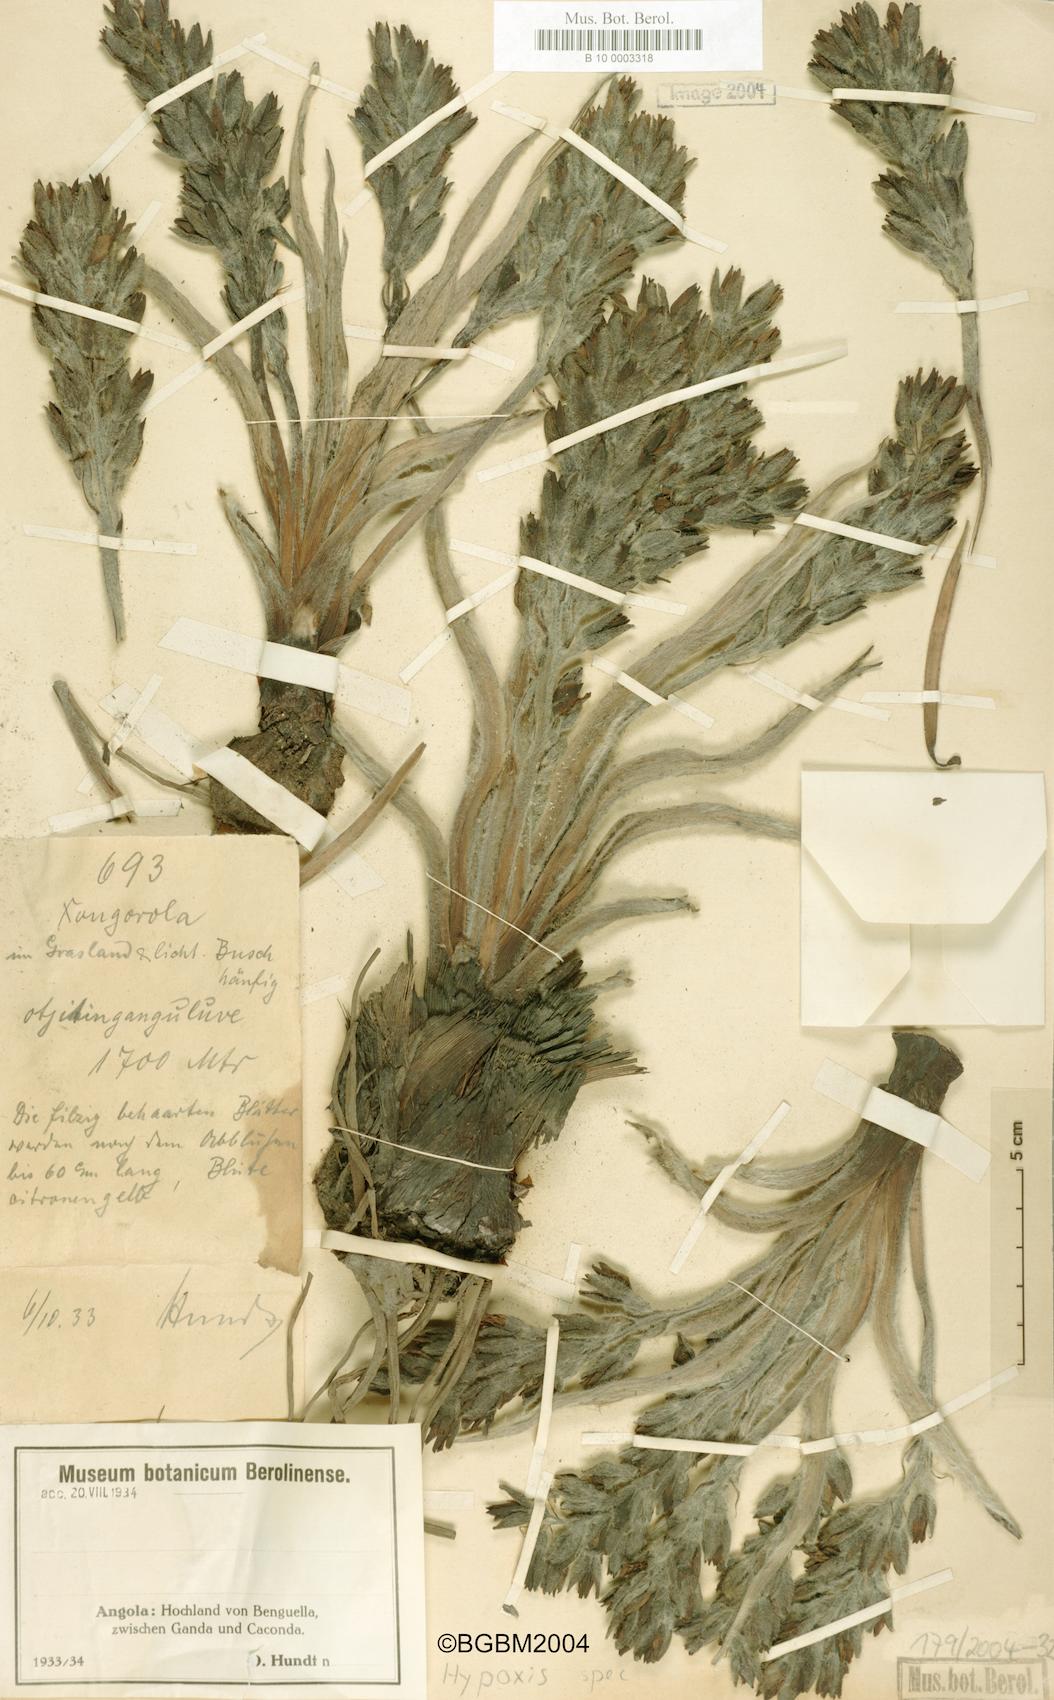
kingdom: Plantae
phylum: Tracheophyta
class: Liliopsida
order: Asparagales
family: Hypoxidaceae
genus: Hypoxis
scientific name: Hypoxis
